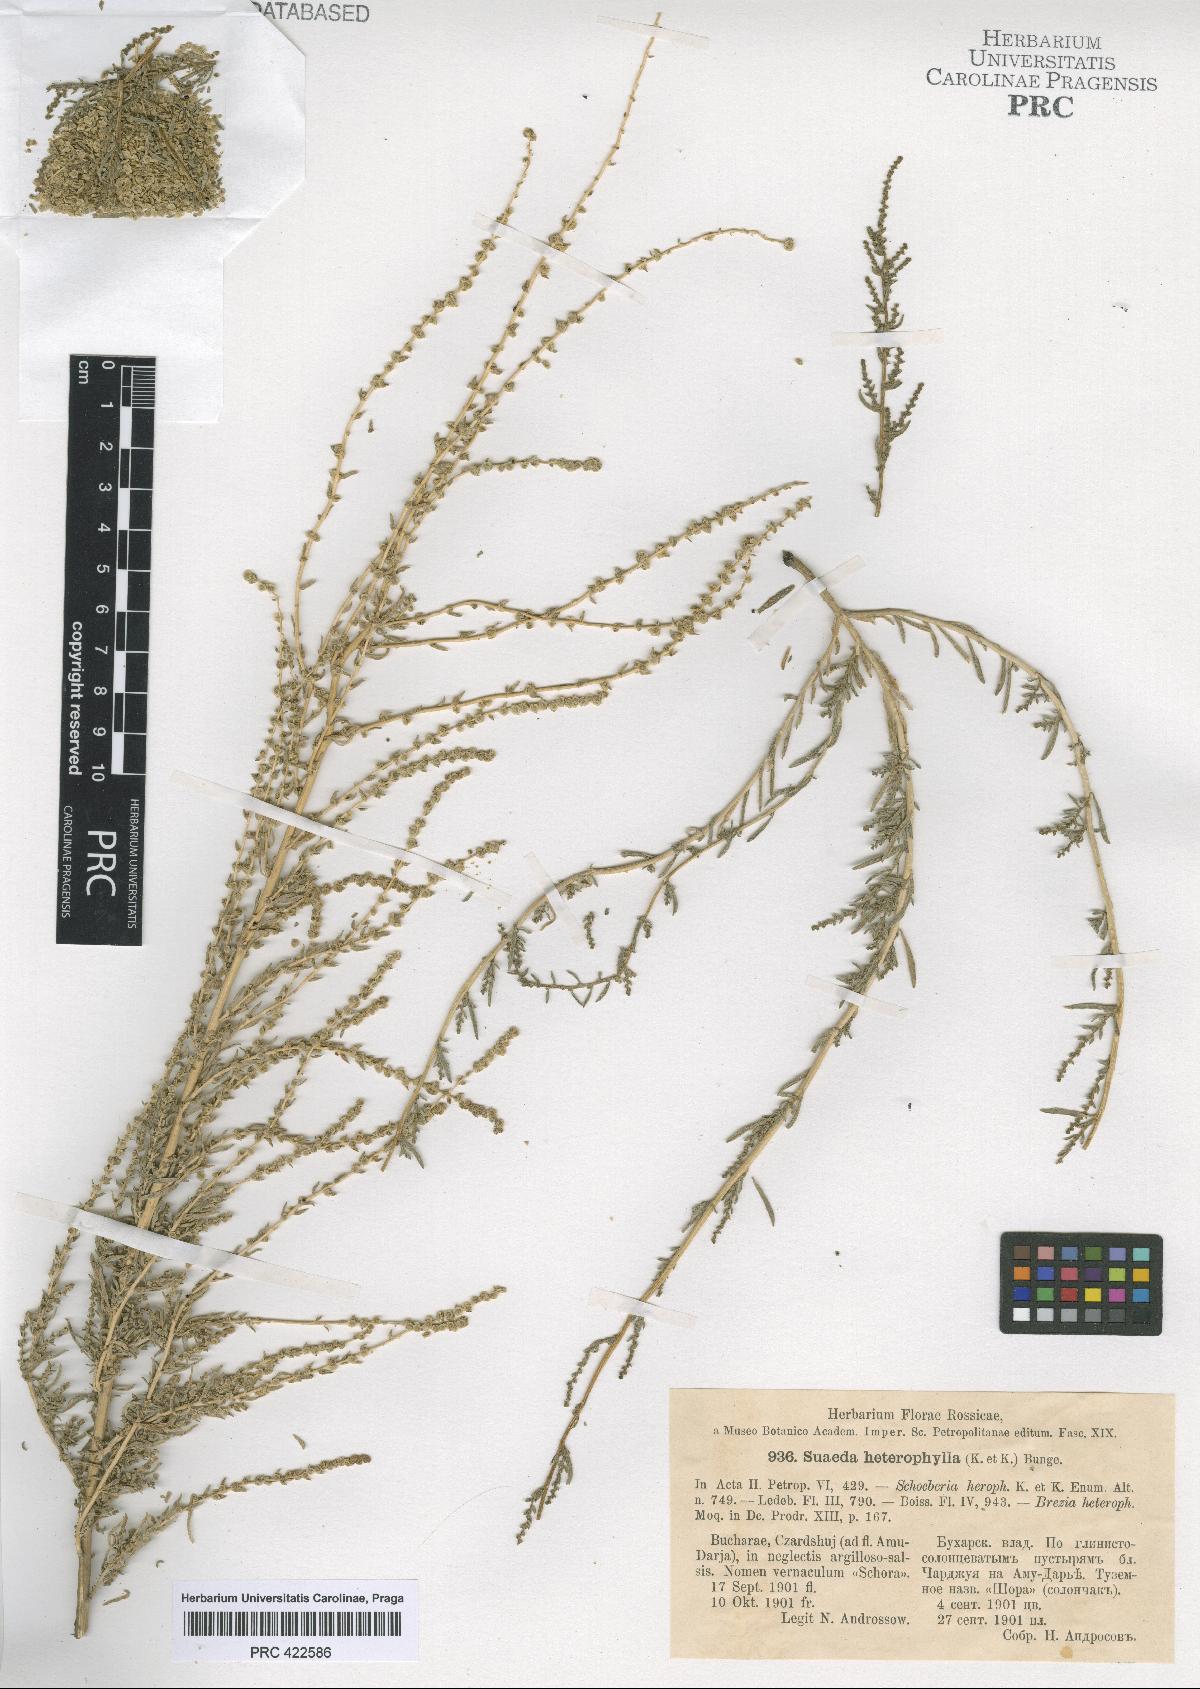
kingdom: Plantae
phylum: Tracheophyta
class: Magnoliopsida
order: Caryophyllales
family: Amaranthaceae
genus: Suaeda
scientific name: Suaeda heterophylla
